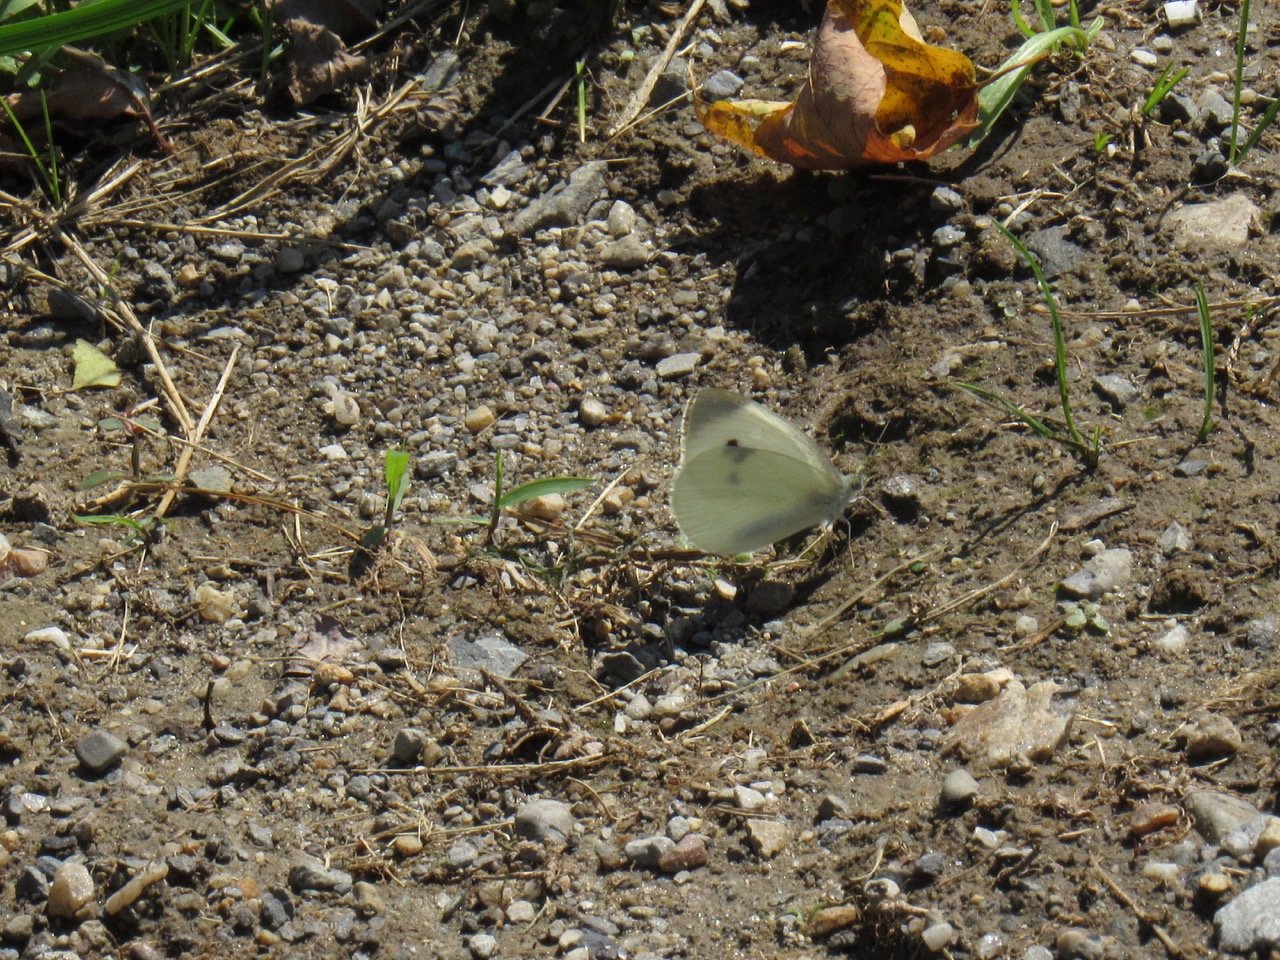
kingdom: Animalia
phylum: Arthropoda
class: Insecta
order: Lepidoptera
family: Pieridae
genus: Pieris
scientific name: Pieris rapae
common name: Cabbage White
